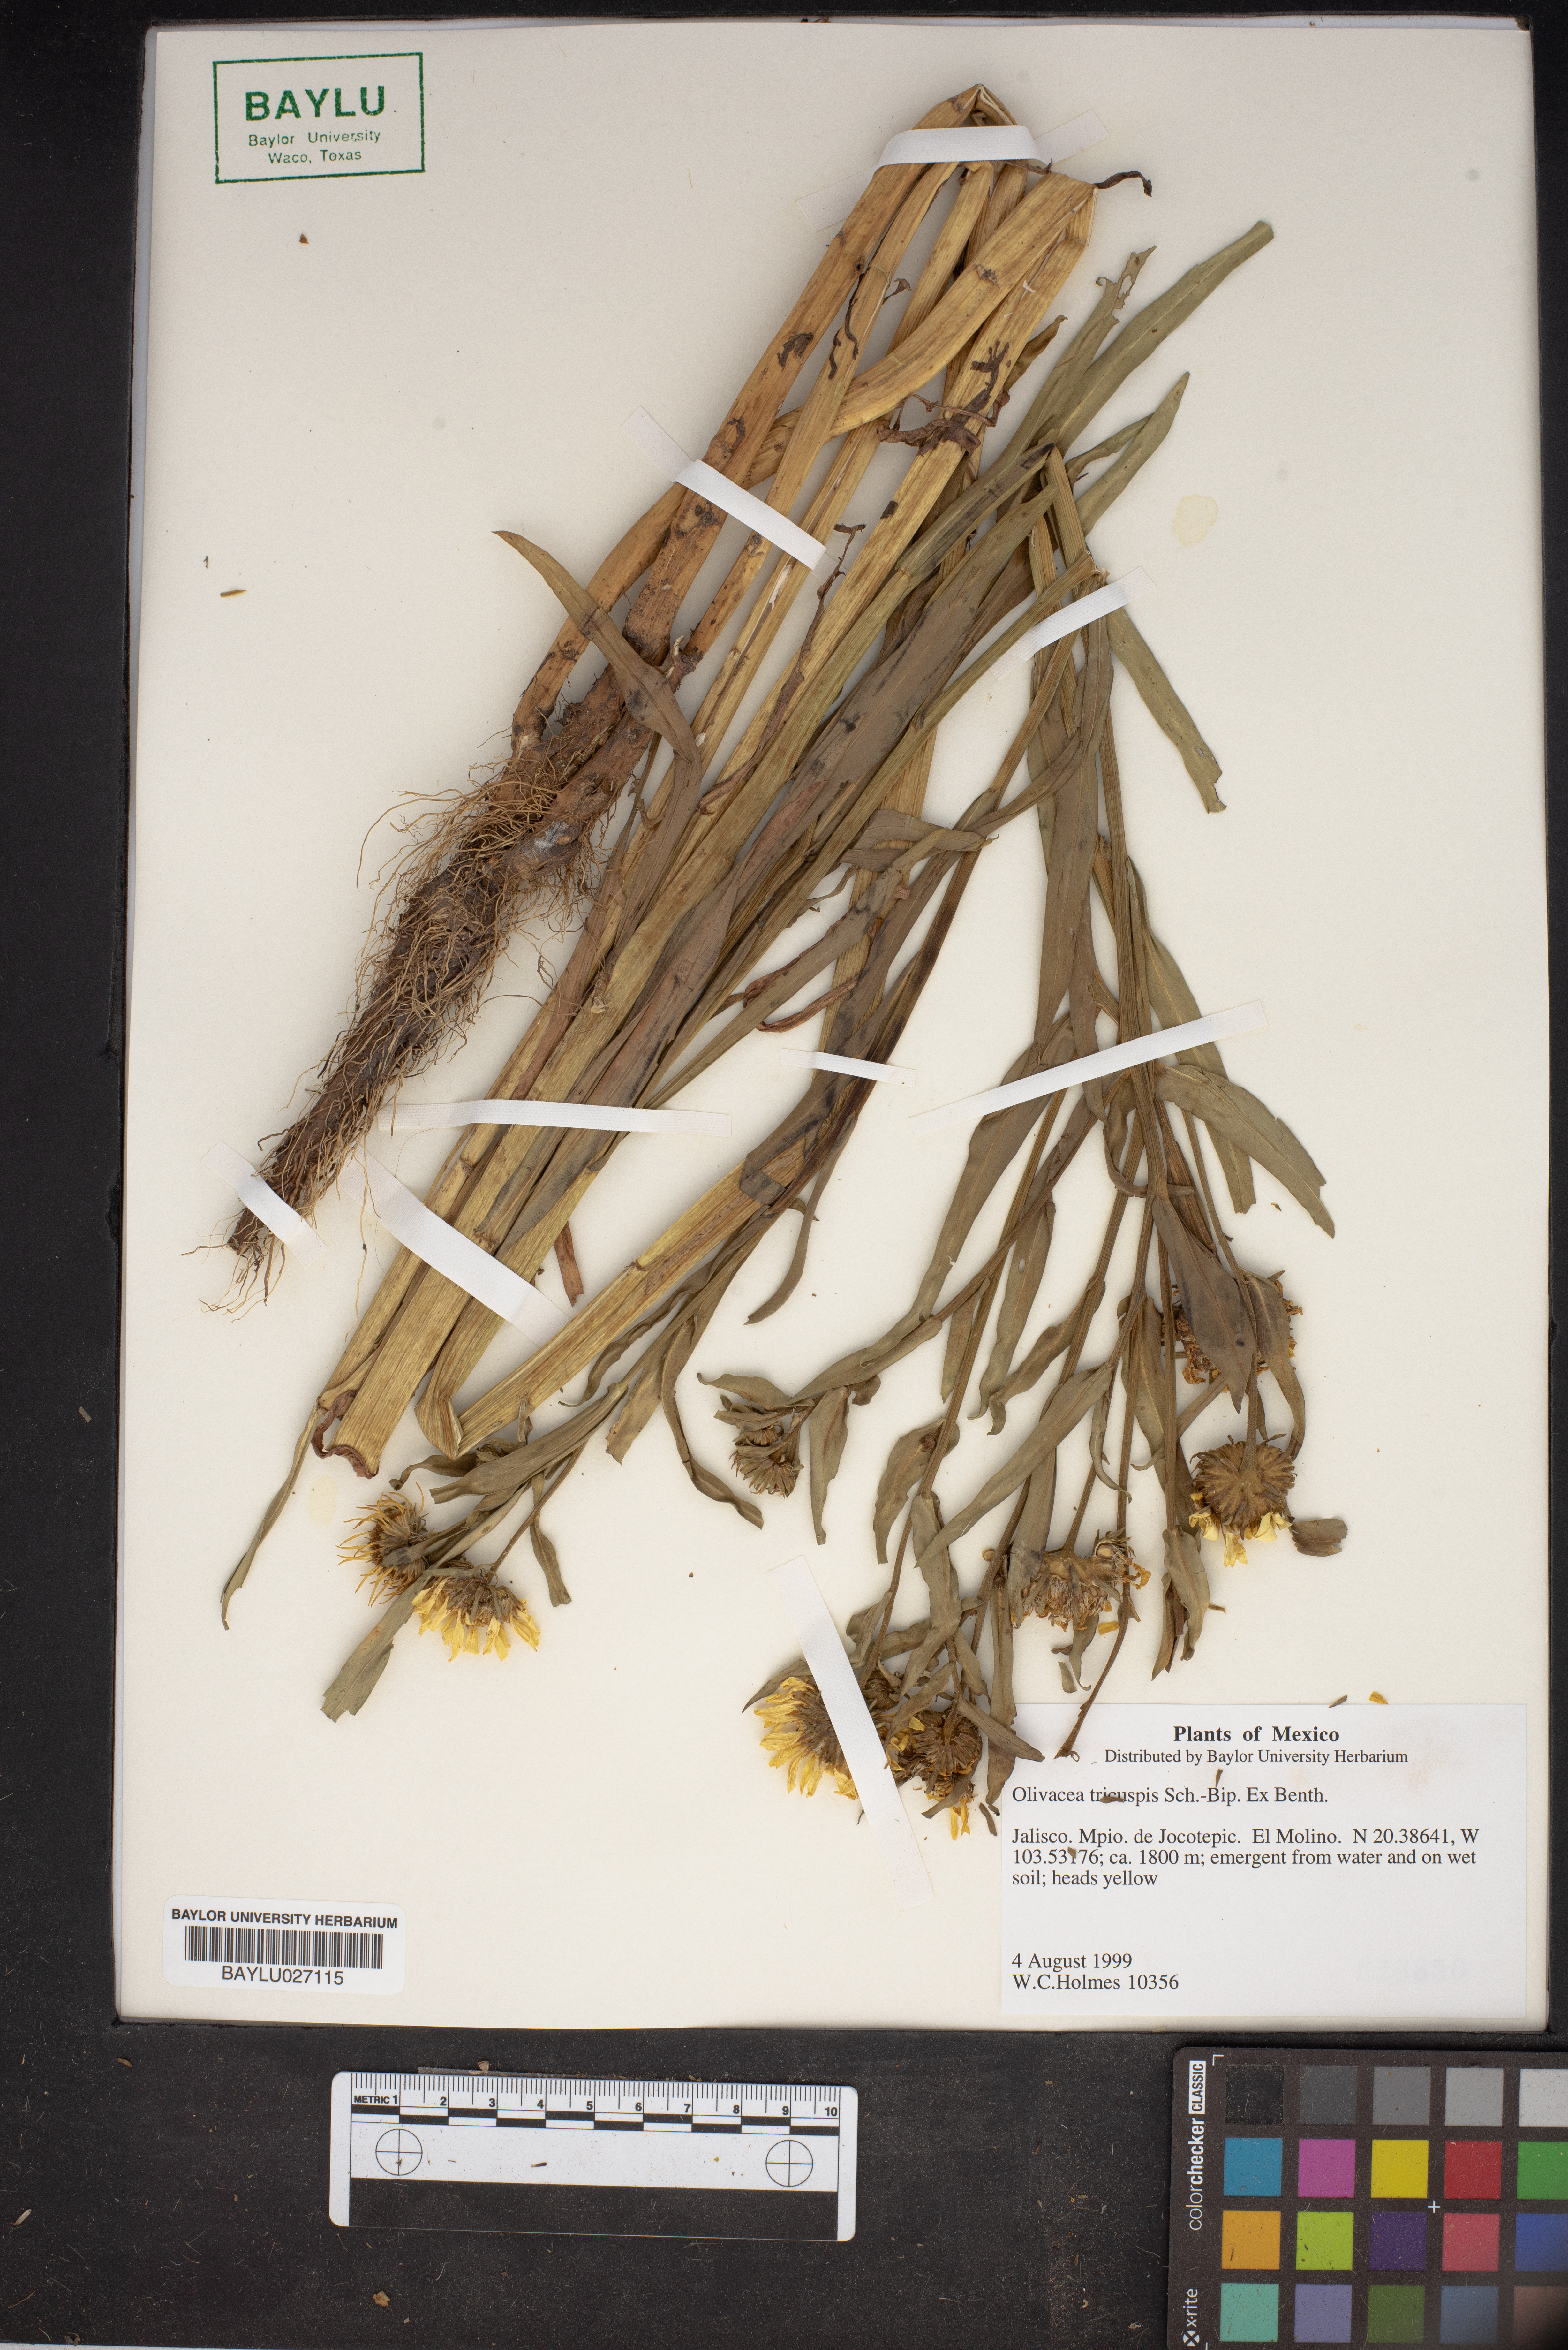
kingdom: Plantae
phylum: Tracheophyta
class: Magnoliopsida
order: Asterales
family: Asteraceae
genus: Grindelia
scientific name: Grindelia tricuspis
